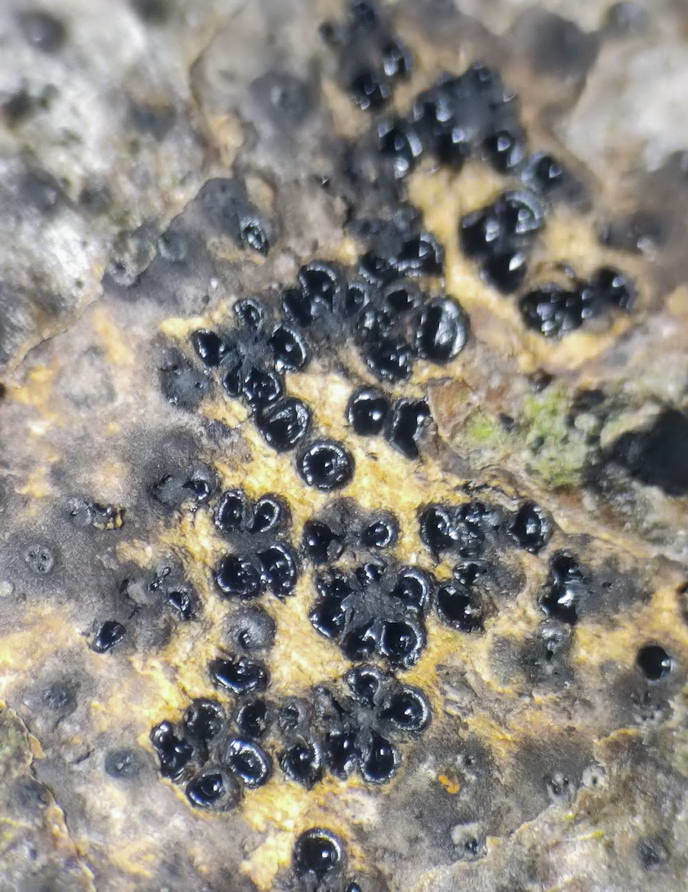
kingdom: Fungi
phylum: Ascomycota
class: Sordariomycetes
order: Xylariales
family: Lopadostomataceae
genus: Lopadostoma
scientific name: Lopadostoma fagi
